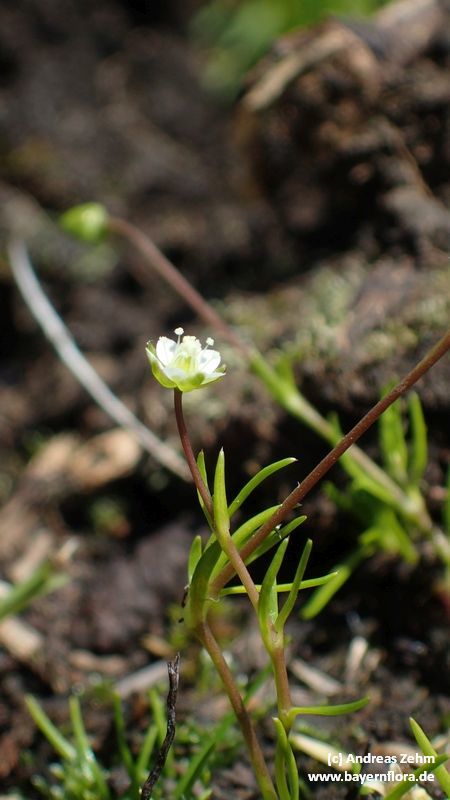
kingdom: Plantae
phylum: Tracheophyta
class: Magnoliopsida
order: Caryophyllales
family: Caryophyllaceae
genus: Sagina
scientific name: Sagina saginoides
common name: Alpine pearlwort
